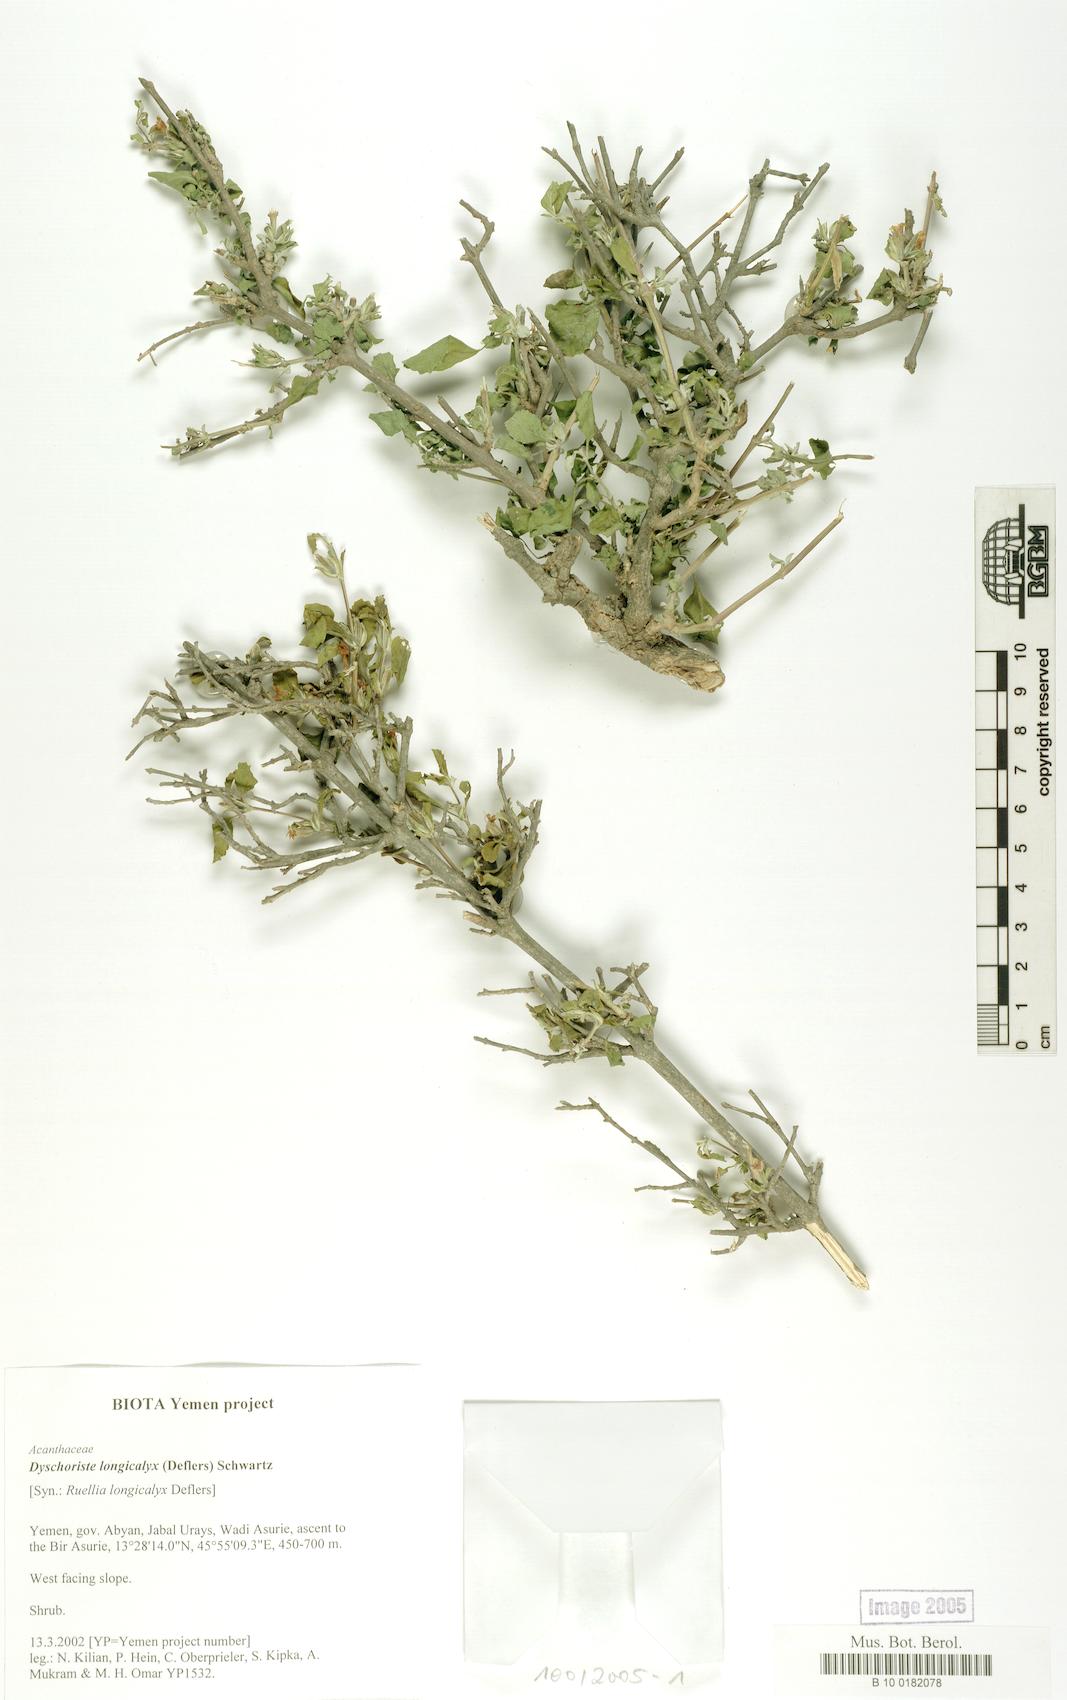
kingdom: Plantae
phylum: Tracheophyta
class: Magnoliopsida
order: Lamiales
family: Acanthaceae
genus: Duosperma
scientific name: Duosperma longicalyx
